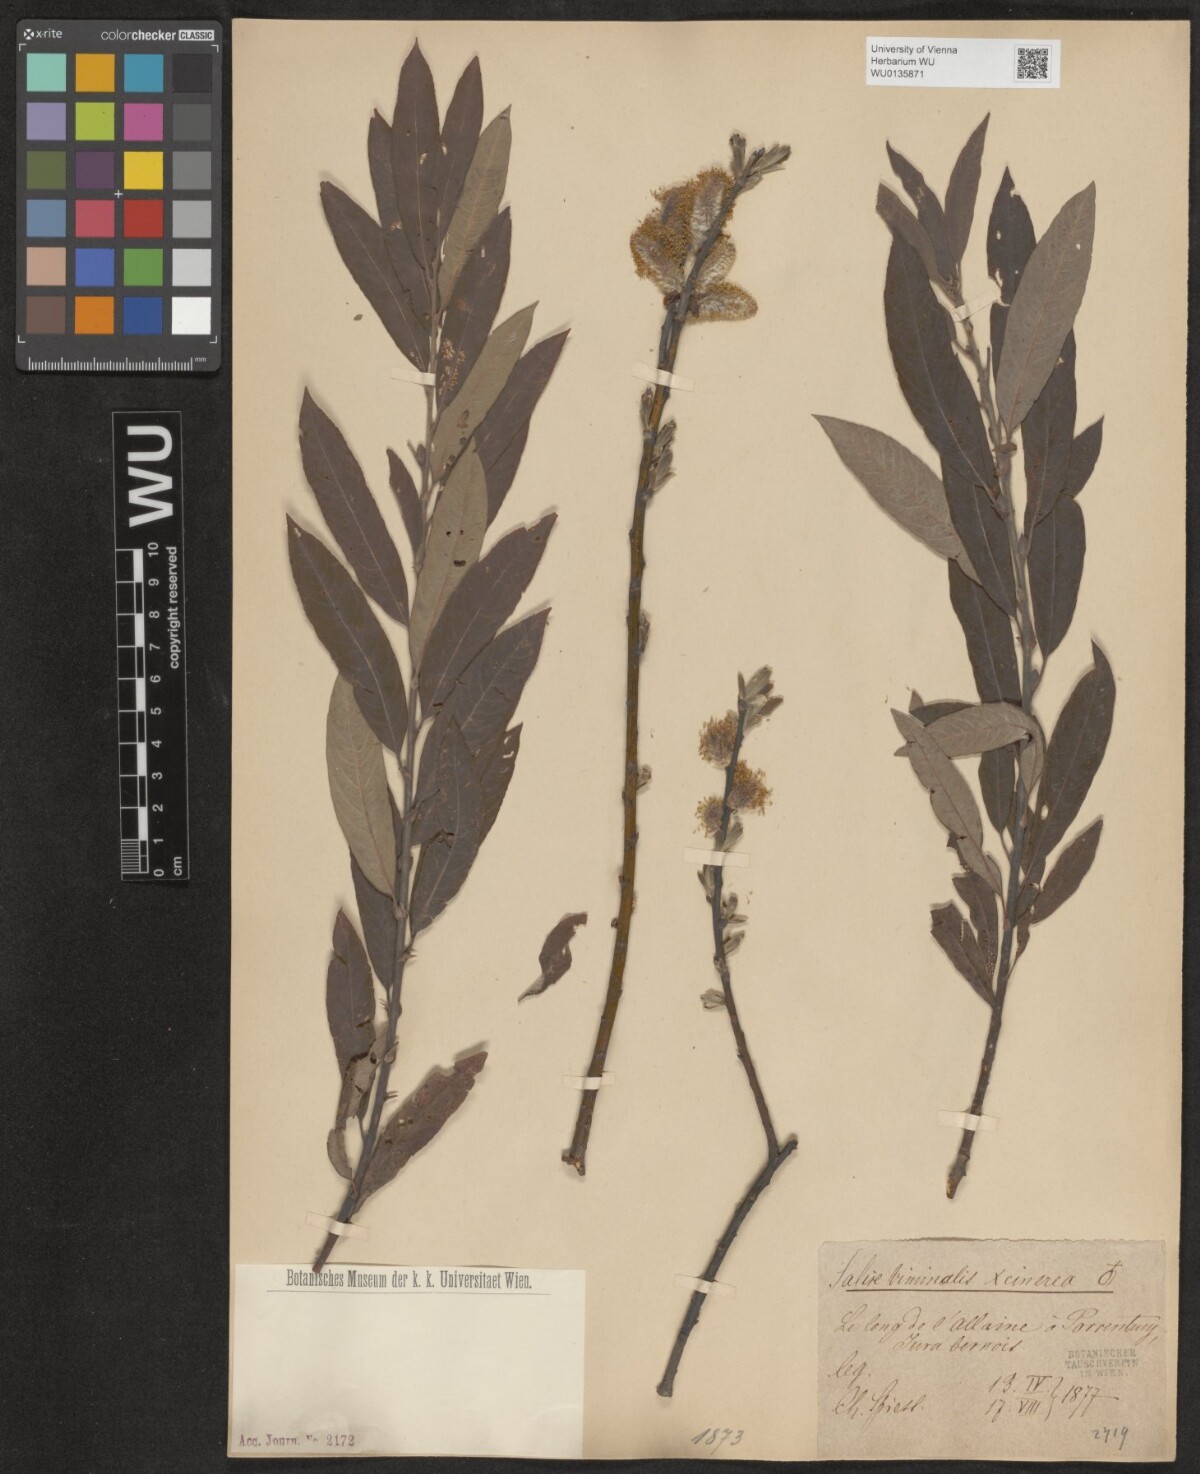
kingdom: Plantae
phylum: Tracheophyta
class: Magnoliopsida
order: Malpighiales
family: Salicaceae
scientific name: Salicaceae
